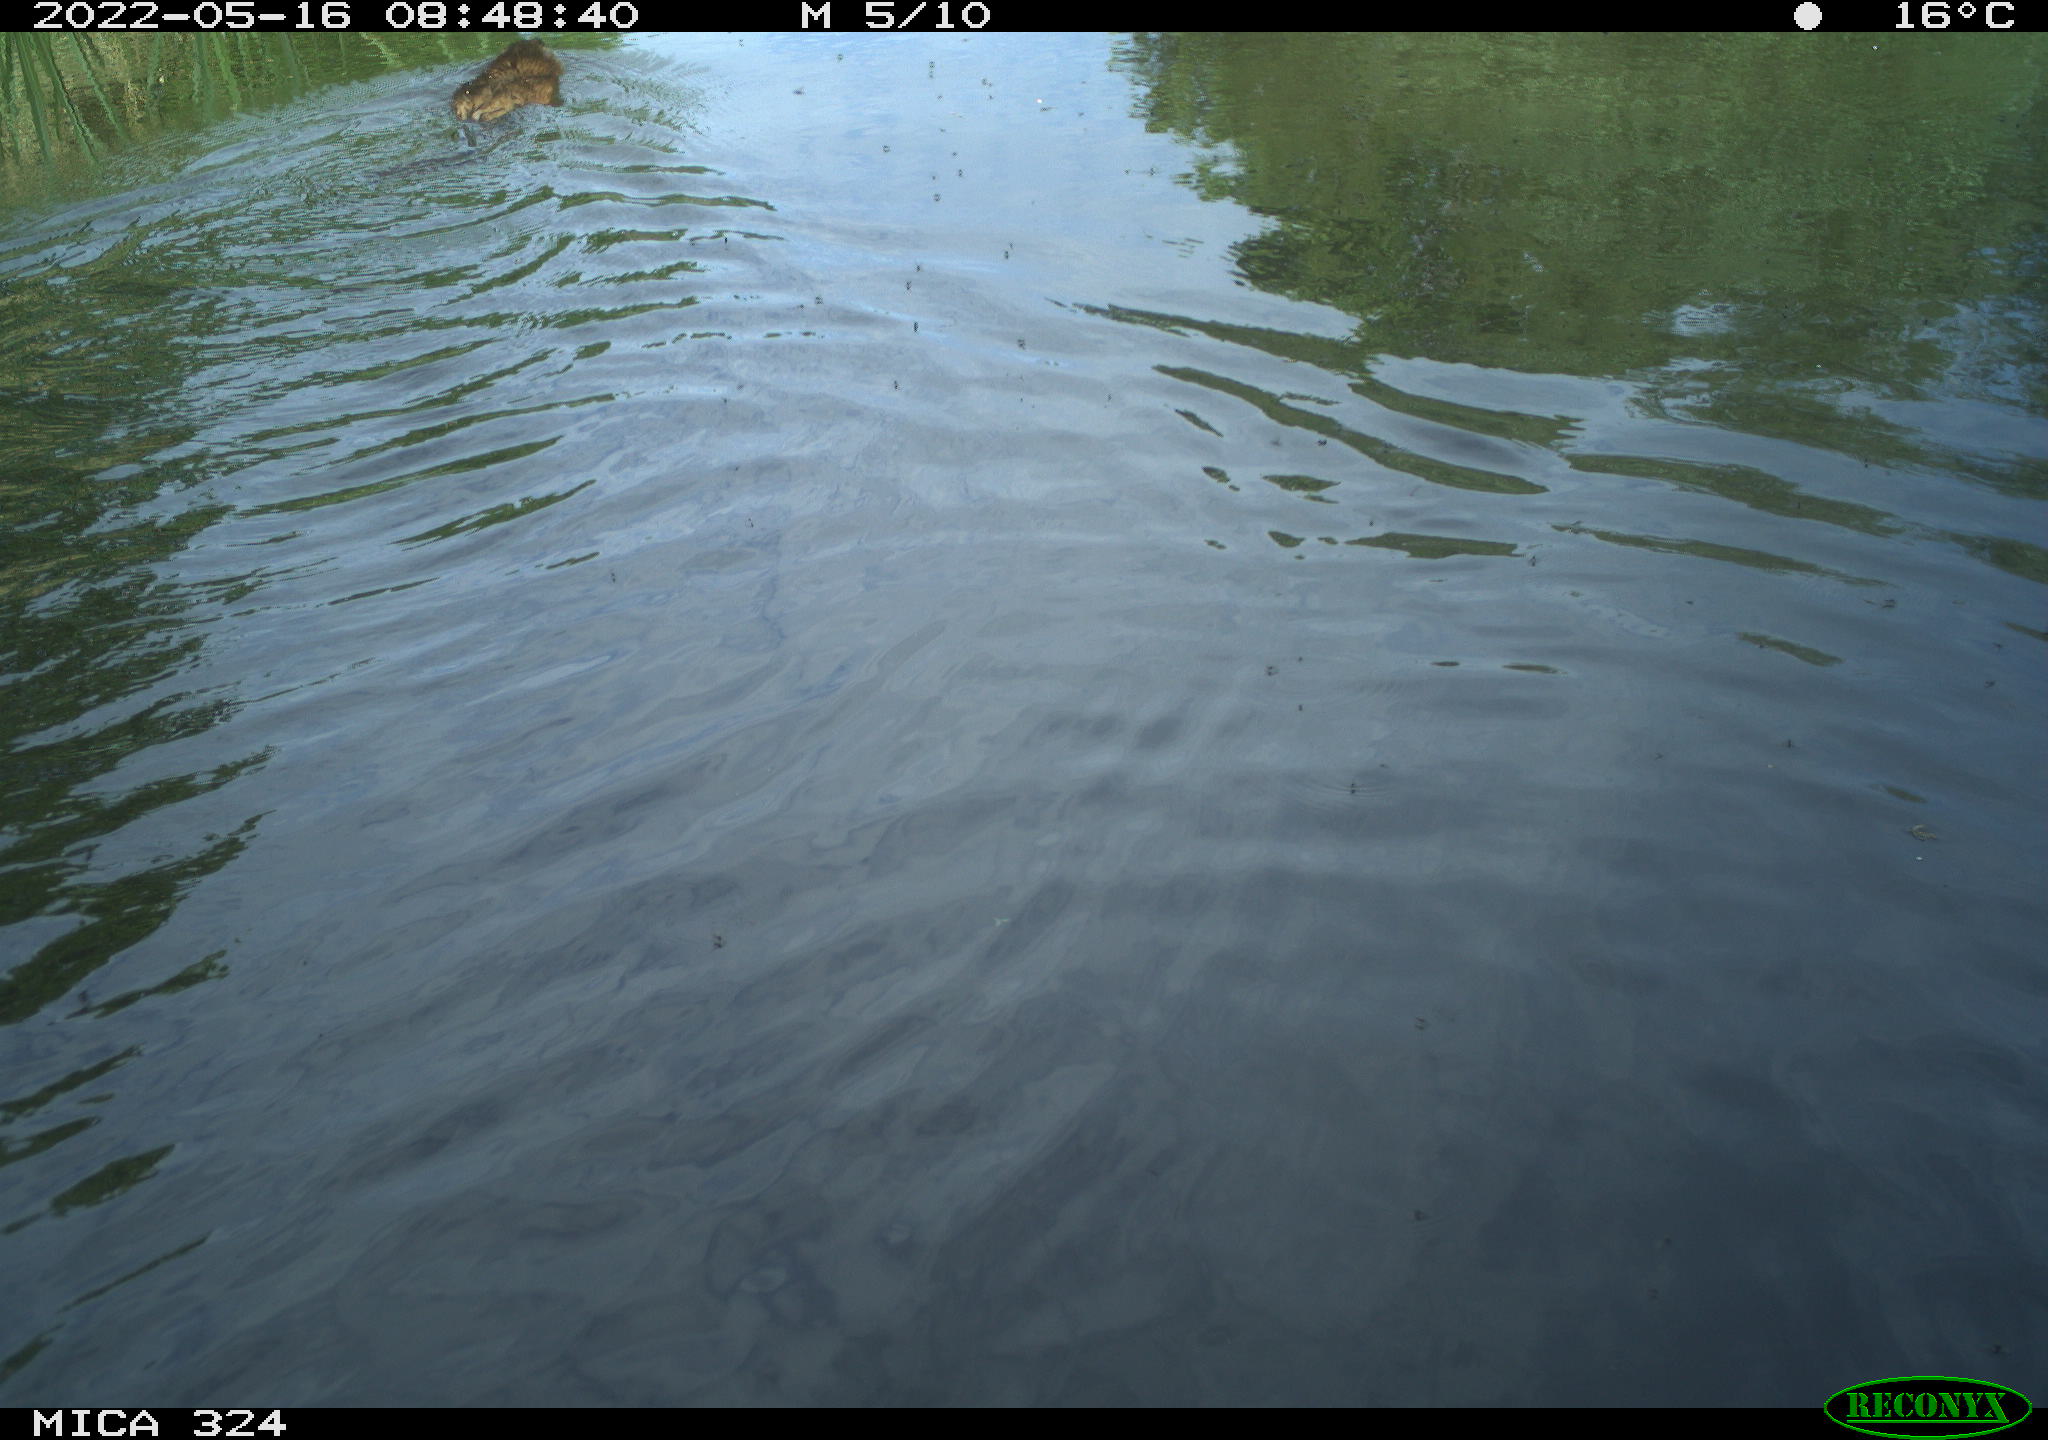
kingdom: Animalia
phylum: Chordata
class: Mammalia
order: Rodentia
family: Cricetidae
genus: Ondatra
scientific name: Ondatra zibethicus
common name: Muskrat
